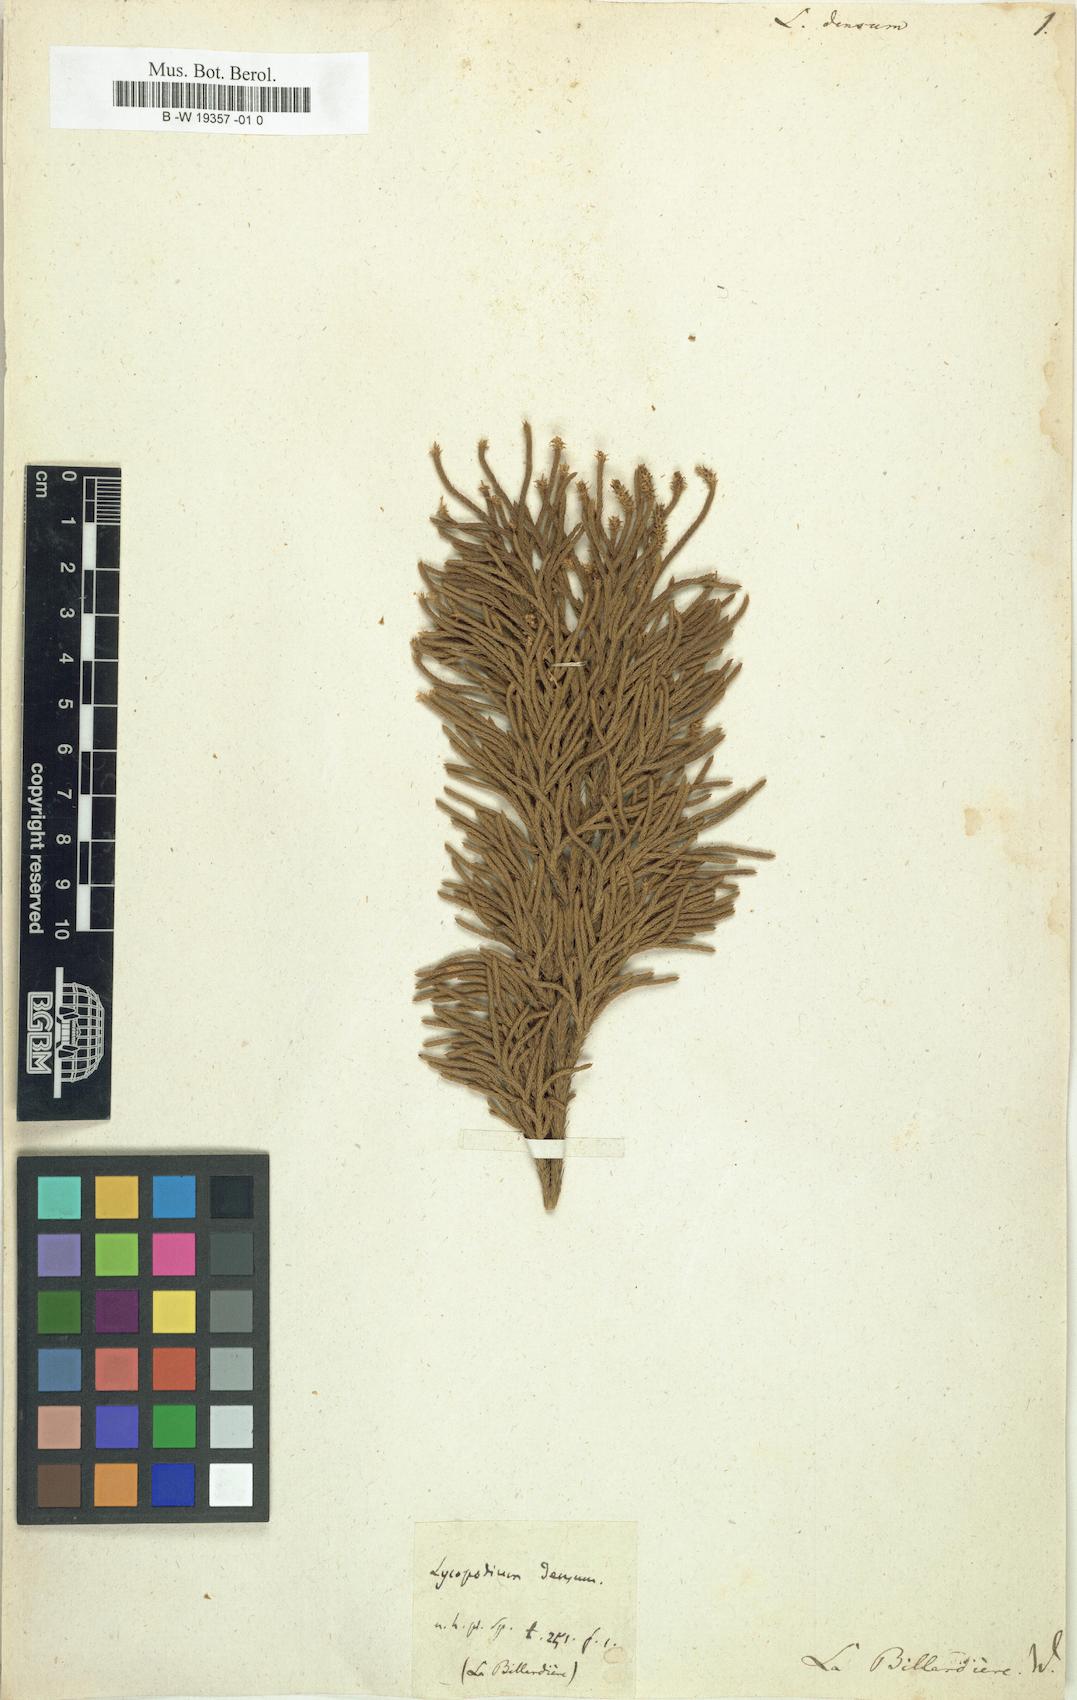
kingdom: Plantae
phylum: Tracheophyta
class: Lycopodiopsida
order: Lycopodiales
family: Lycopodiaceae
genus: Pseudolycopodium
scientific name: Pseudolycopodium densum
